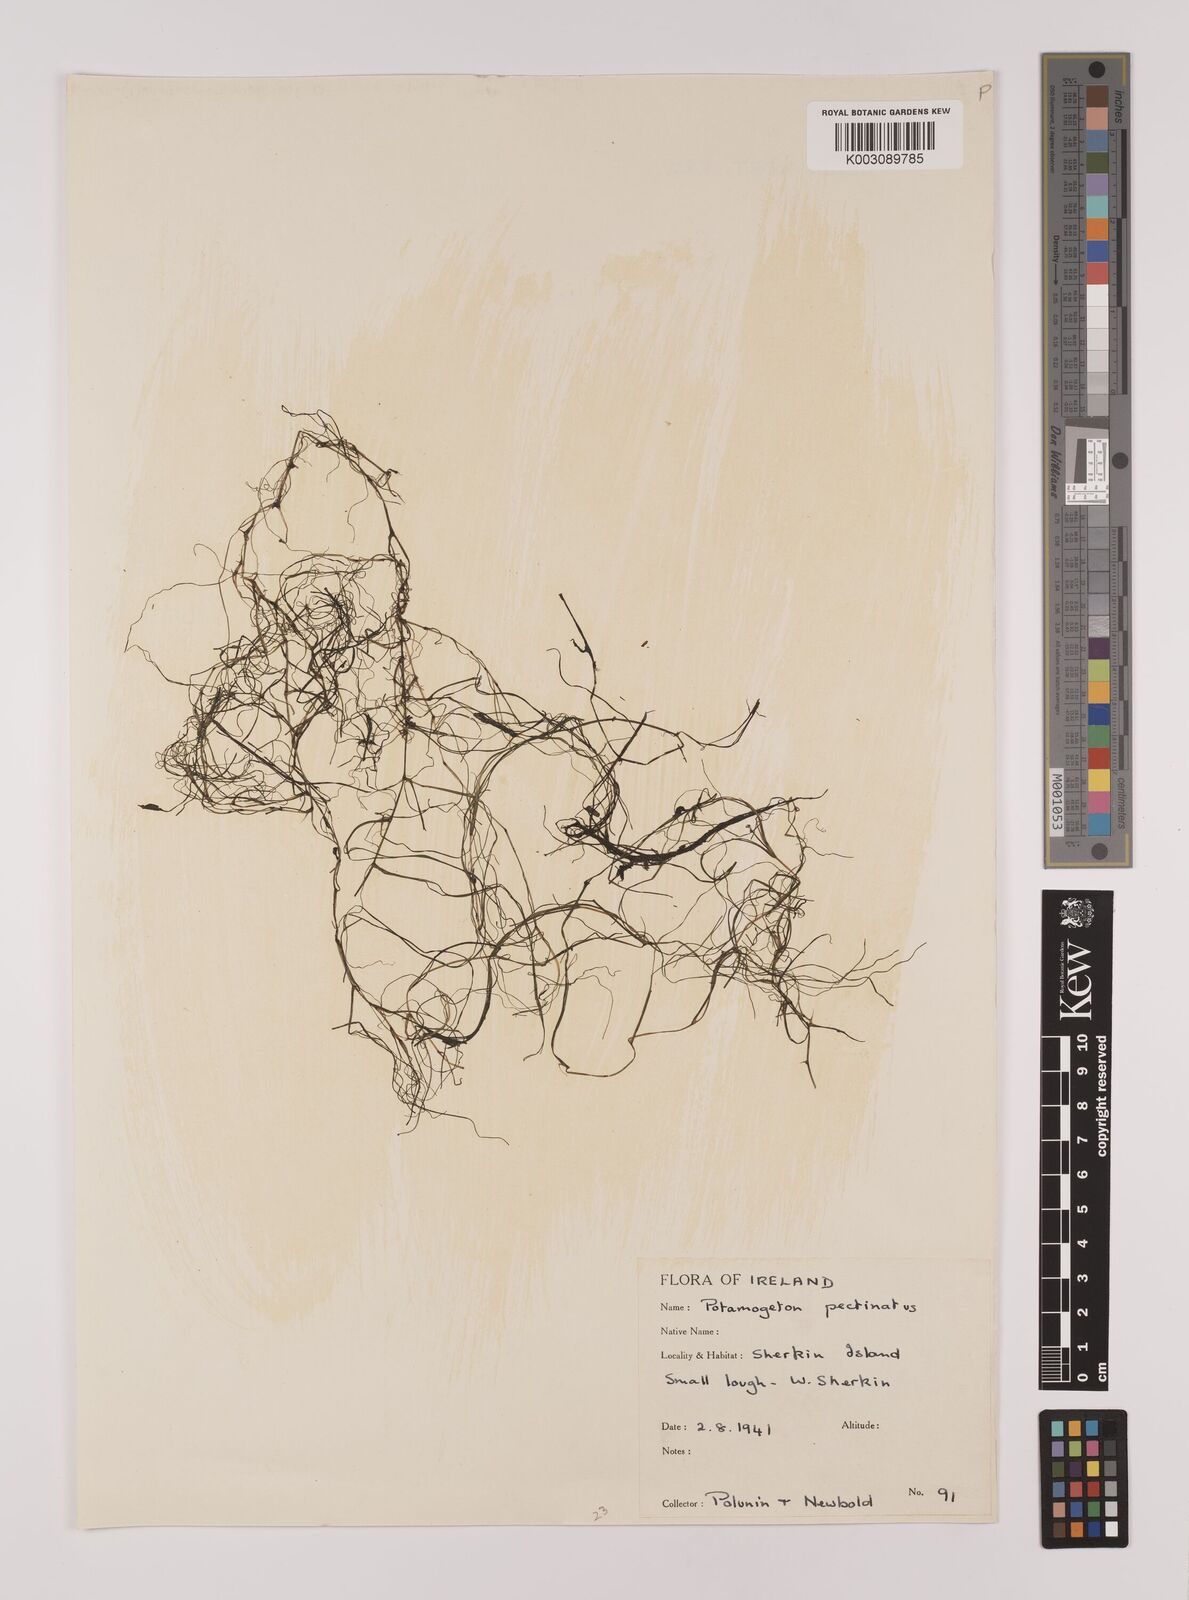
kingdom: Plantae
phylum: Tracheophyta
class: Liliopsida
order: Alismatales
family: Potamogetonaceae
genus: Stuckenia
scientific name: Stuckenia pectinata
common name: Sago pondweed
